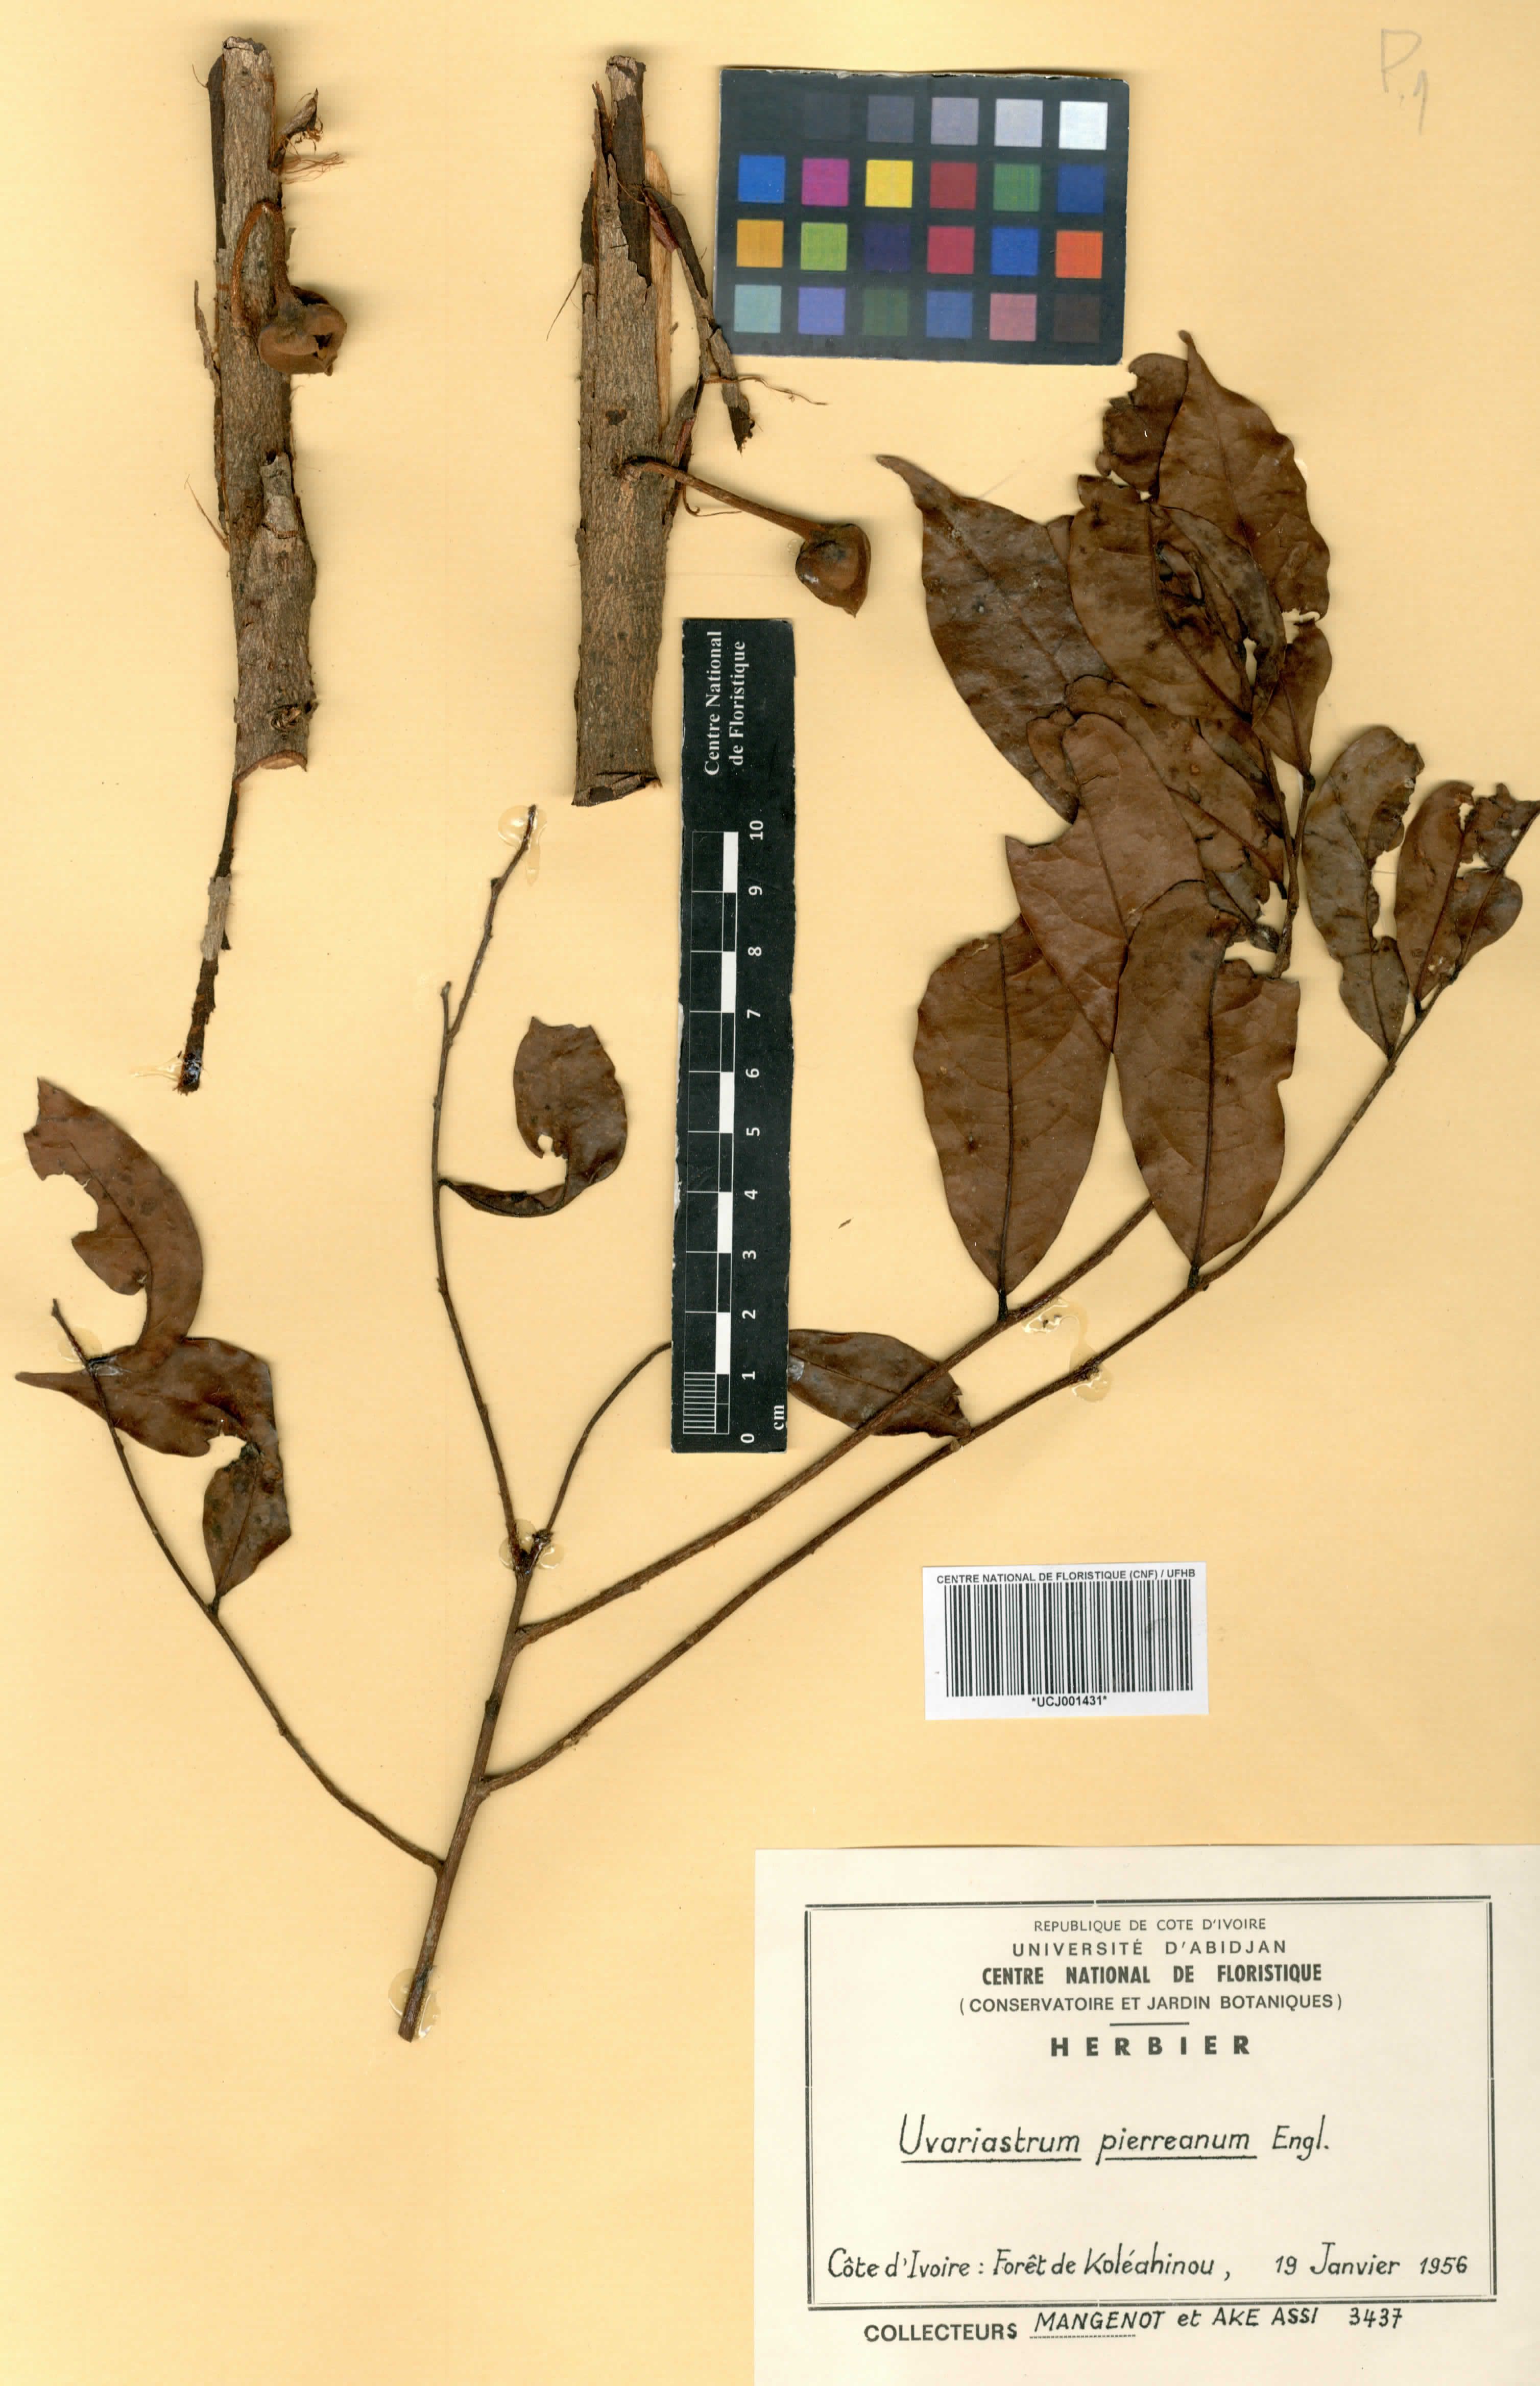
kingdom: Plantae
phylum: Tracheophyta
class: Magnoliopsida
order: Magnoliales
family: Annonaceae
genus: Uvariastrum
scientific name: Uvariastrum pierreanum
